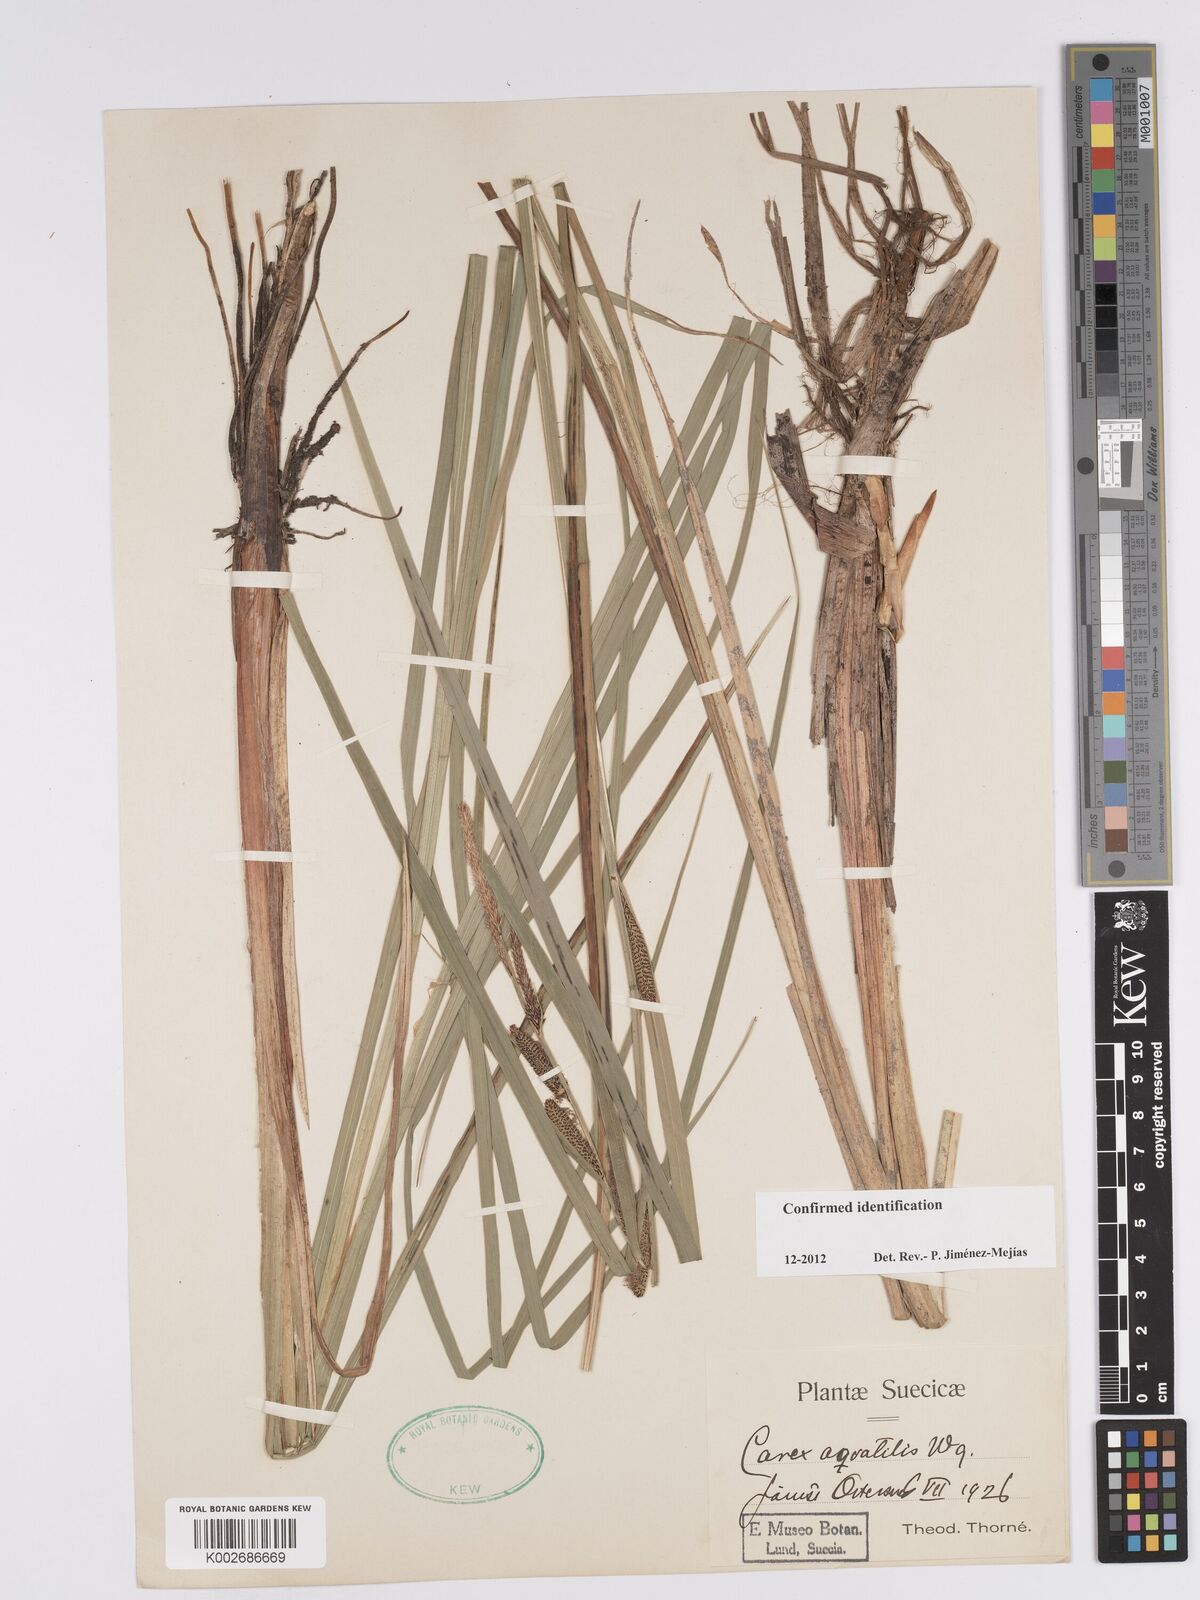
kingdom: Plantae
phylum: Tracheophyta
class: Liliopsida
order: Poales
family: Cyperaceae
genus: Carex
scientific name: Carex aquatilis
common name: Water sedge
